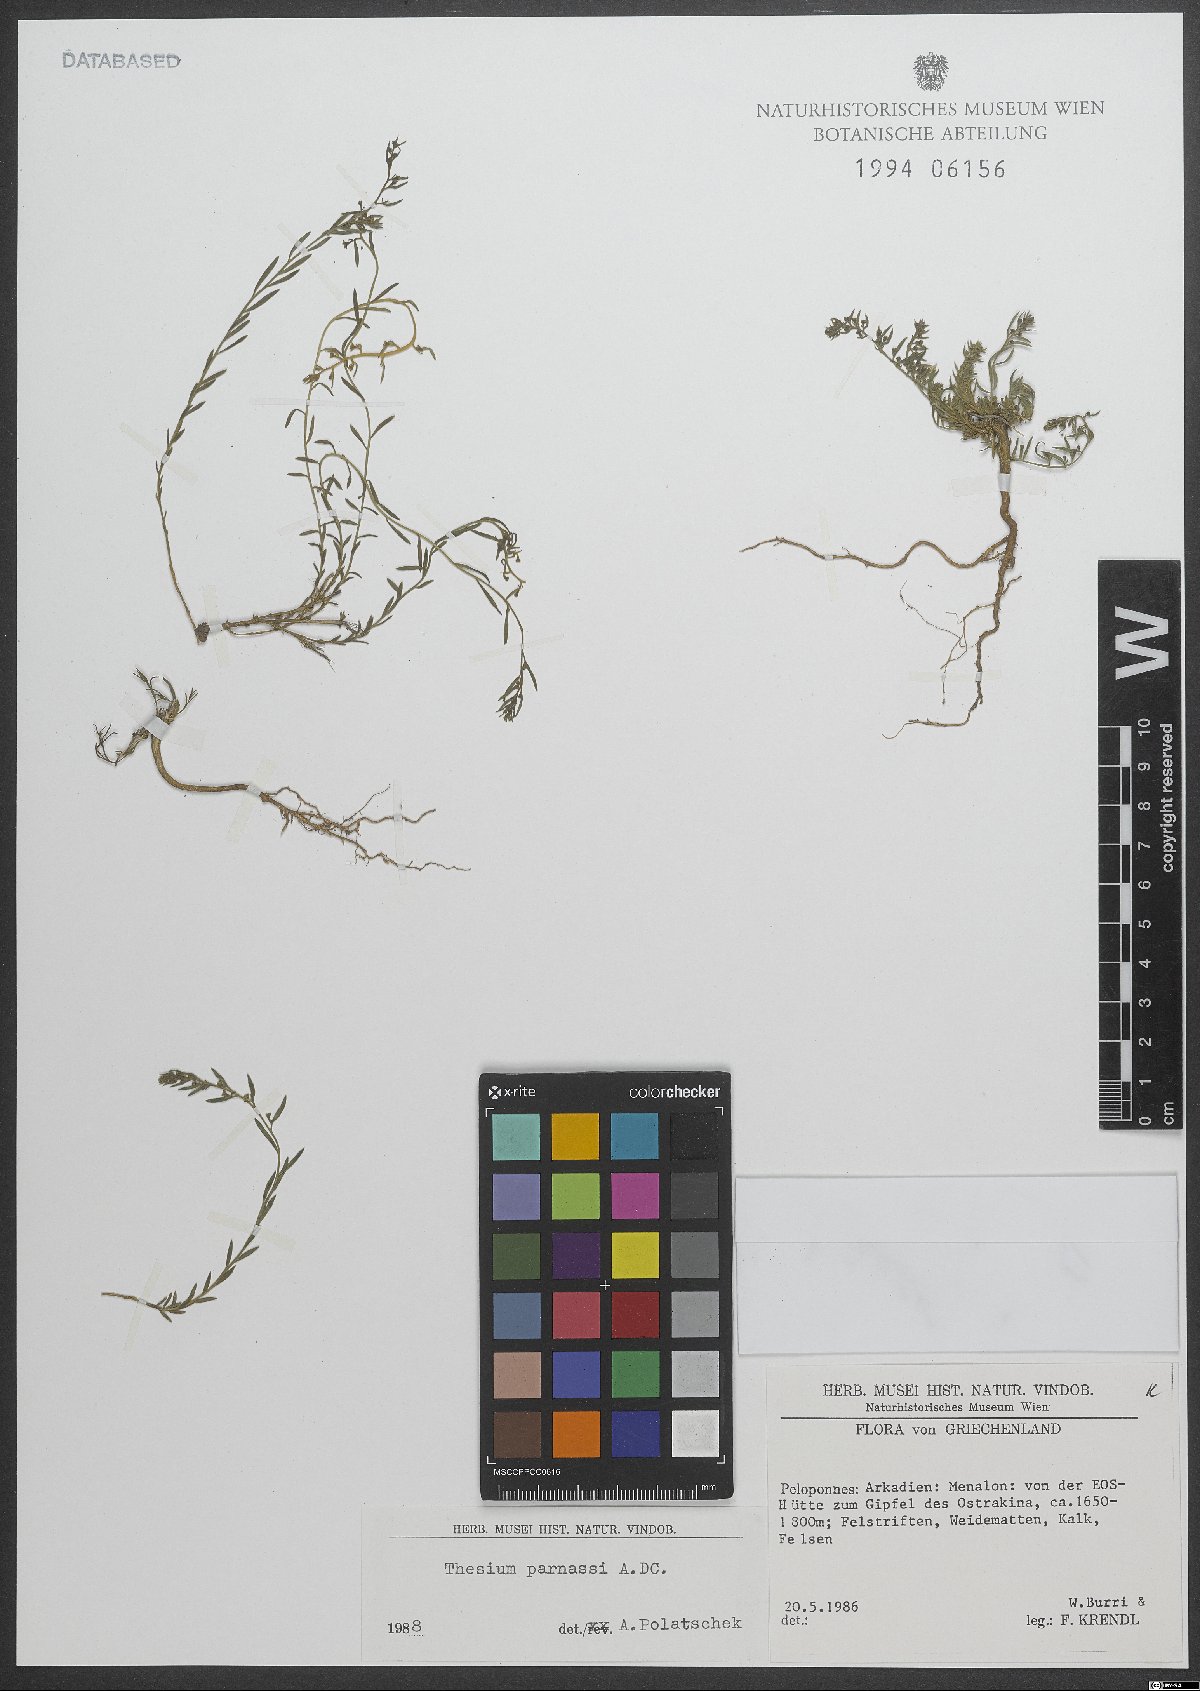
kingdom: Plantae
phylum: Tracheophyta
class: Magnoliopsida
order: Santalales
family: Thesiaceae
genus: Thesium
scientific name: Thesium parnassi
